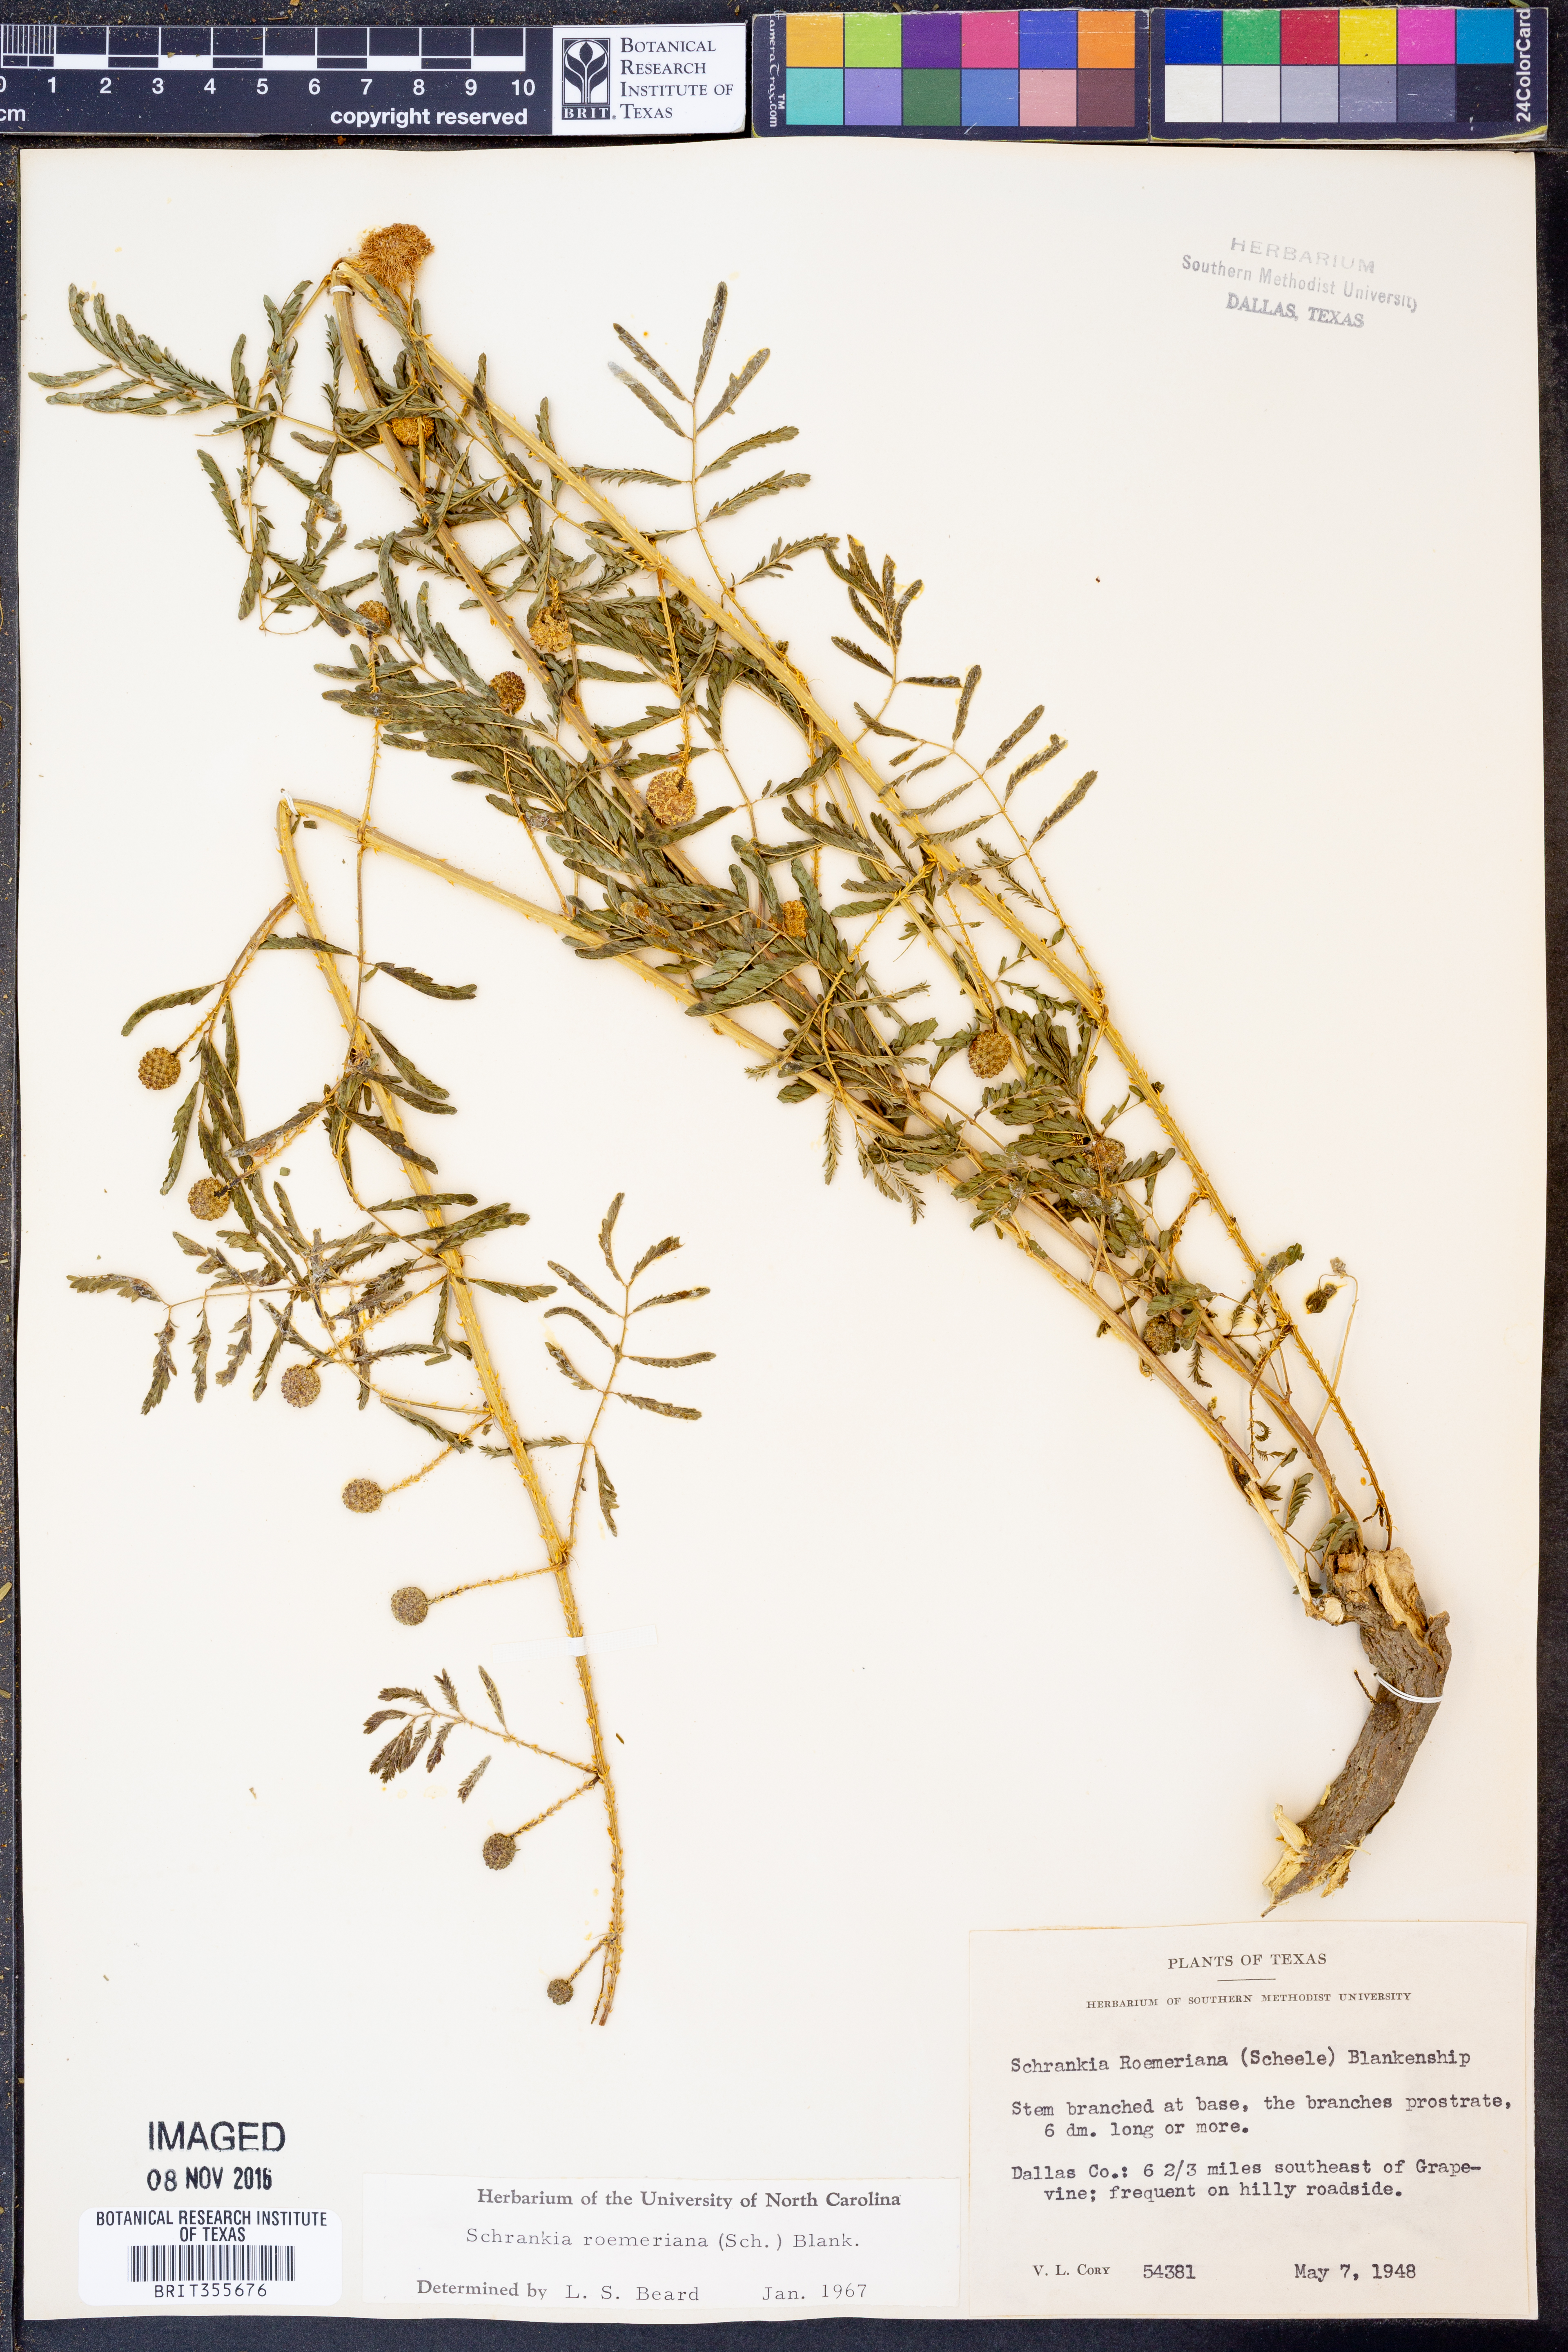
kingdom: Plantae
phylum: Tracheophyta
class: Magnoliopsida
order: Fabales
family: Fabaceae
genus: Mimosa
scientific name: Mimosa quadrivalvis
